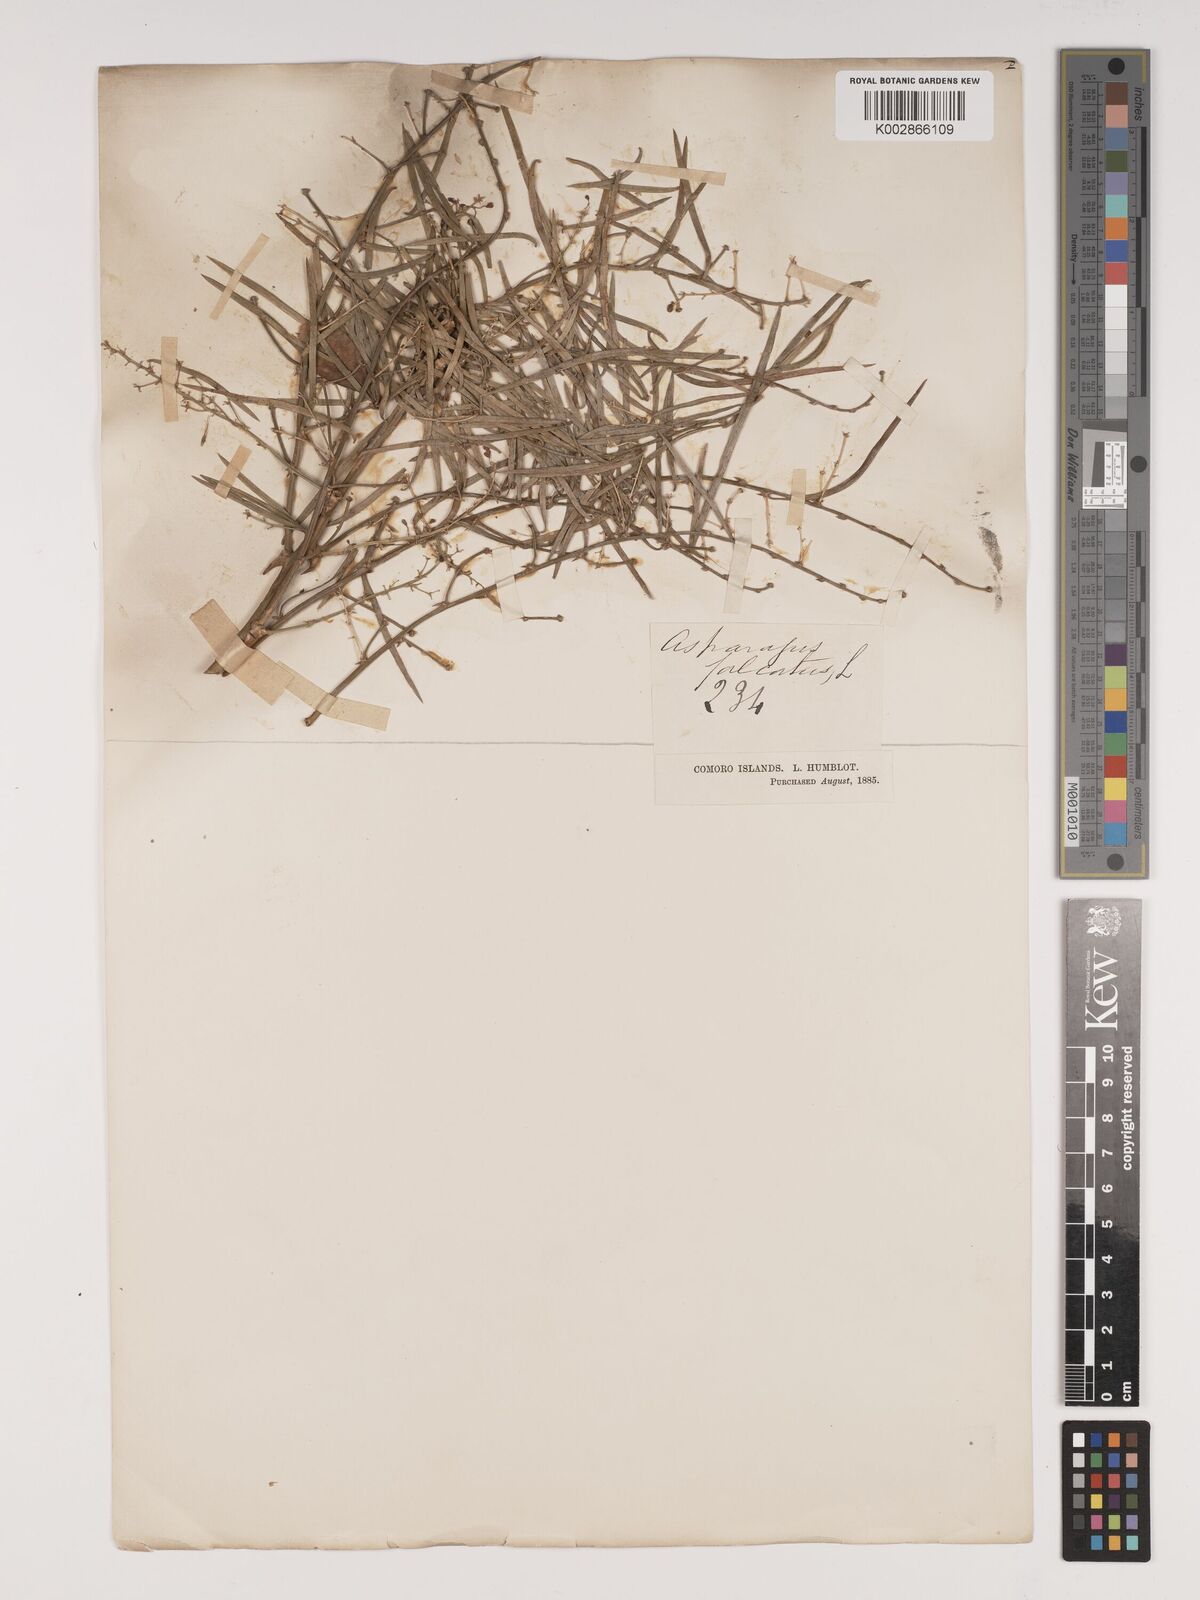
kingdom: Plantae
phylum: Tracheophyta
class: Liliopsida
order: Asparagales
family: Asparagaceae
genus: Asparagus
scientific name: Asparagus falcatus
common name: Asparagus
